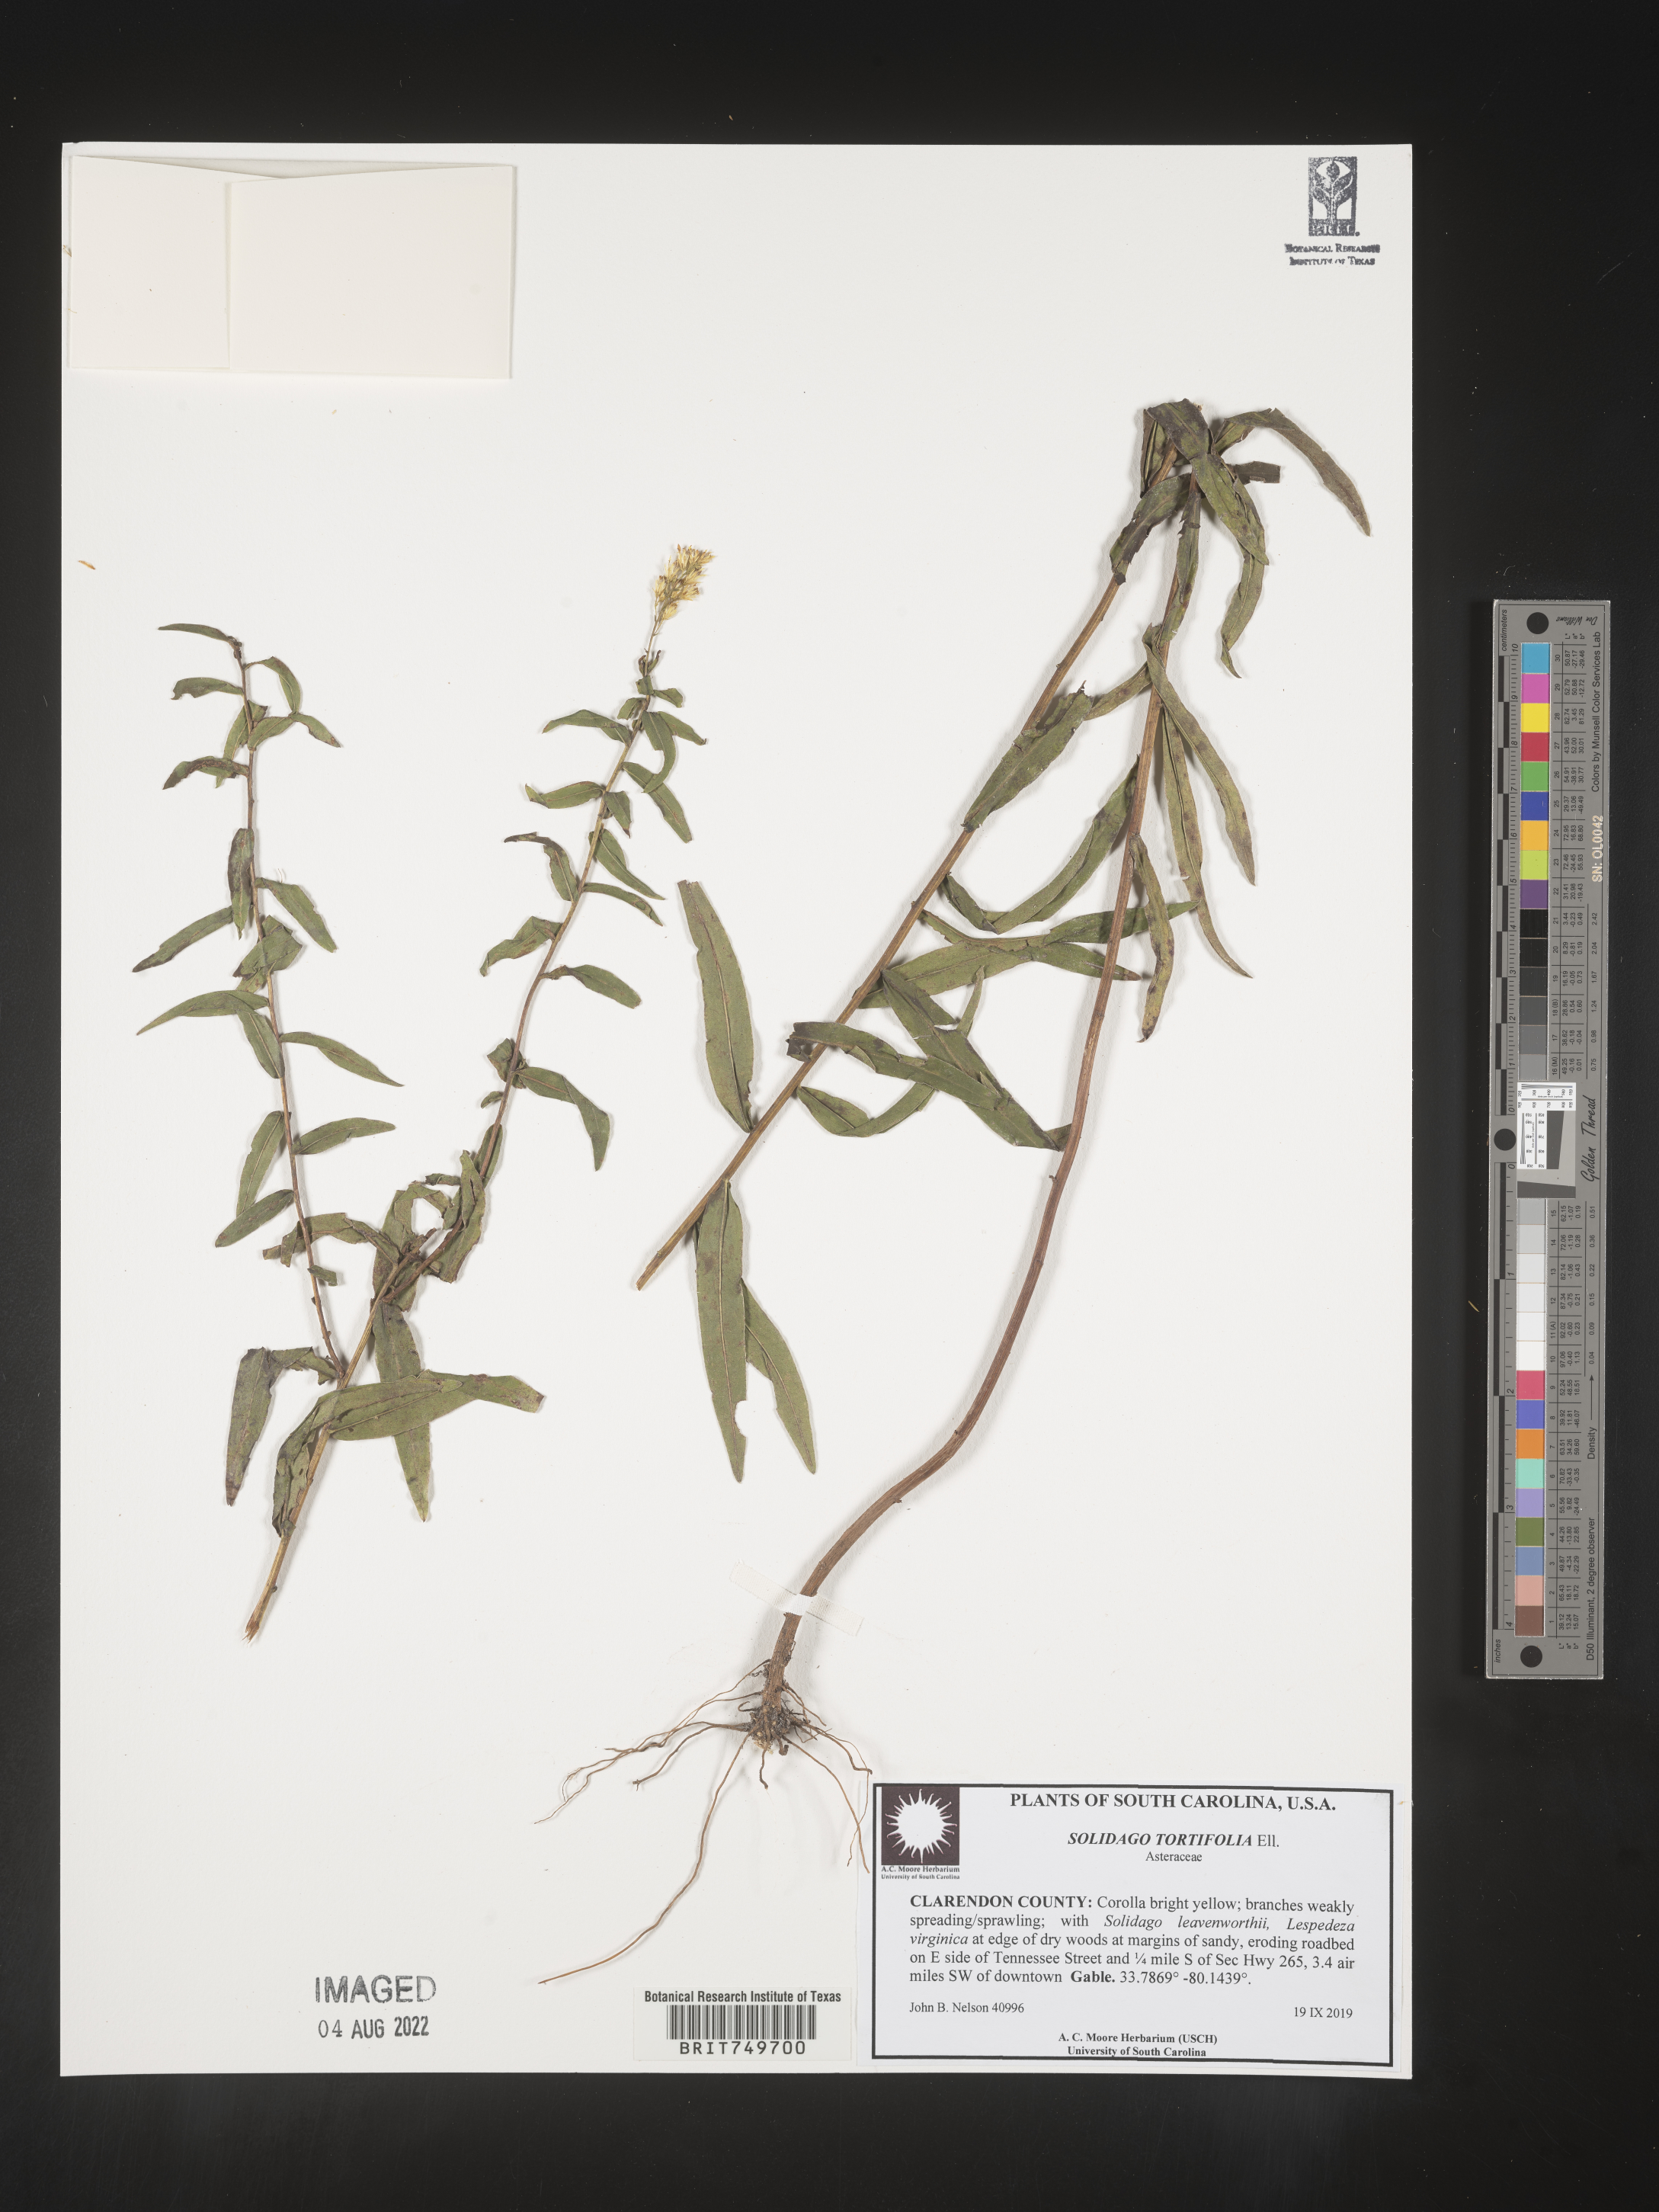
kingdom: Plantae
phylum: Tracheophyta
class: Magnoliopsida
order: Asterales
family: Asteraceae
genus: Solidago
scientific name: Solidago tortifolia
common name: Twisted-leaf goldenrod
